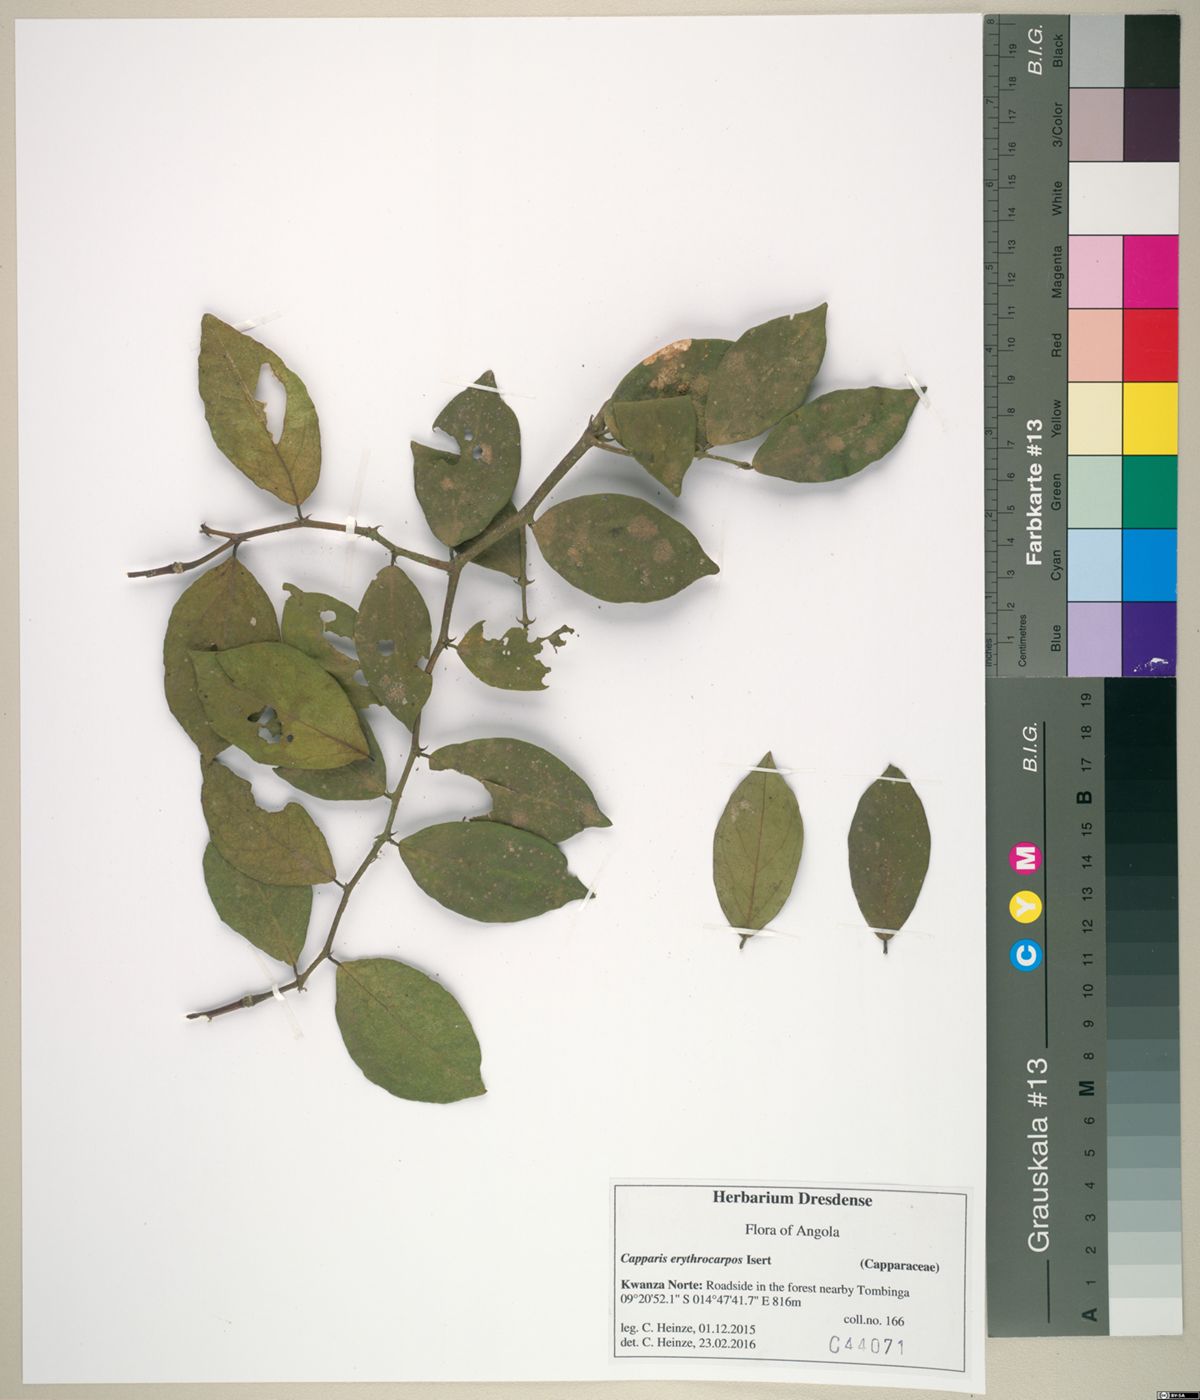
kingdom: Plantae
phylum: Tracheophyta
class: Magnoliopsida
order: Brassicales
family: Capparaceae
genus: Capparis
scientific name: Capparis erythrocarpos
